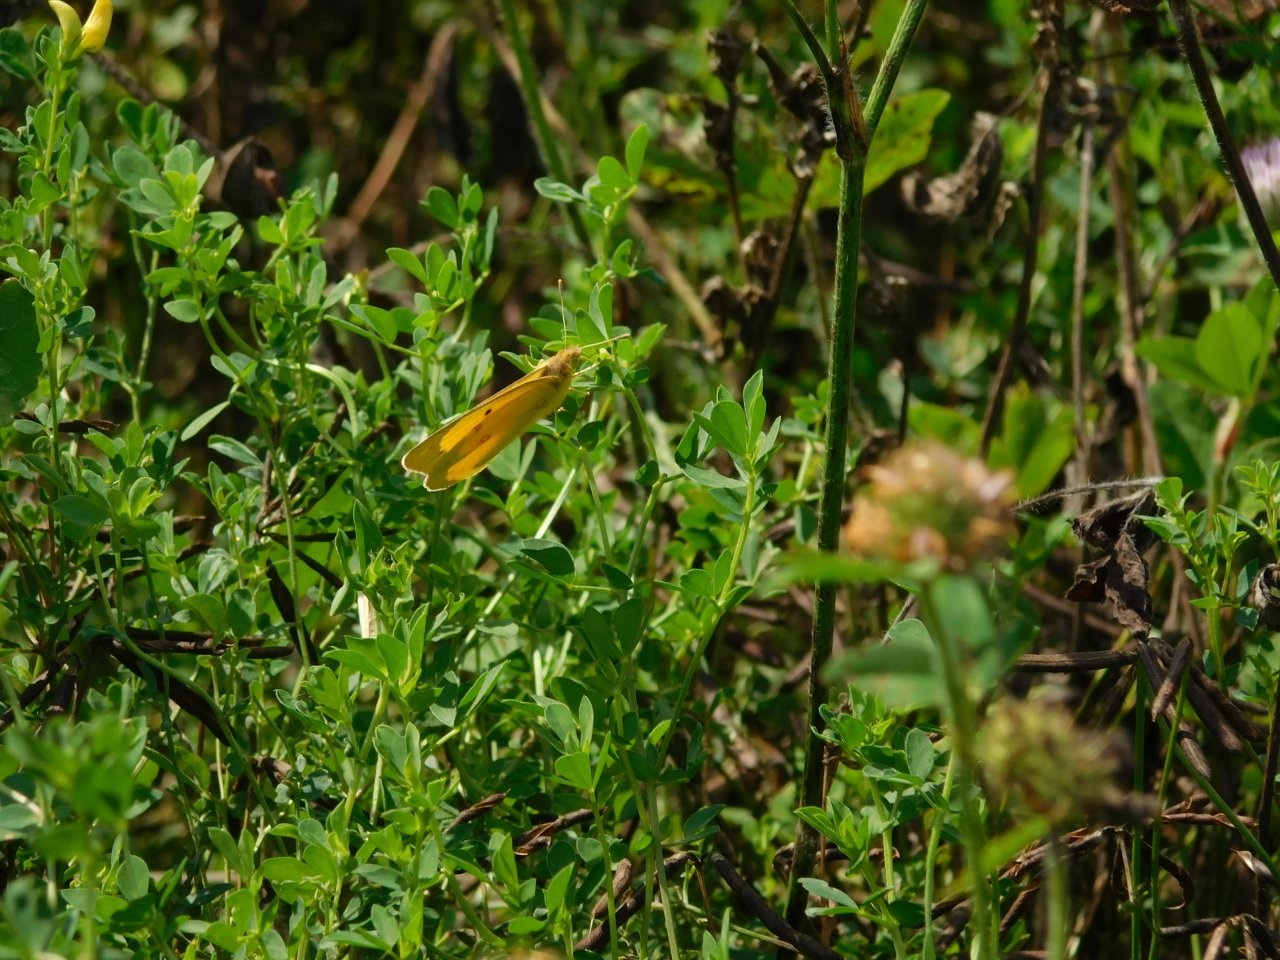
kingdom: Animalia
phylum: Arthropoda
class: Insecta
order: Lepidoptera
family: Pieridae
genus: Colias
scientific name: Colias eurytheme
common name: Orange Sulphur
